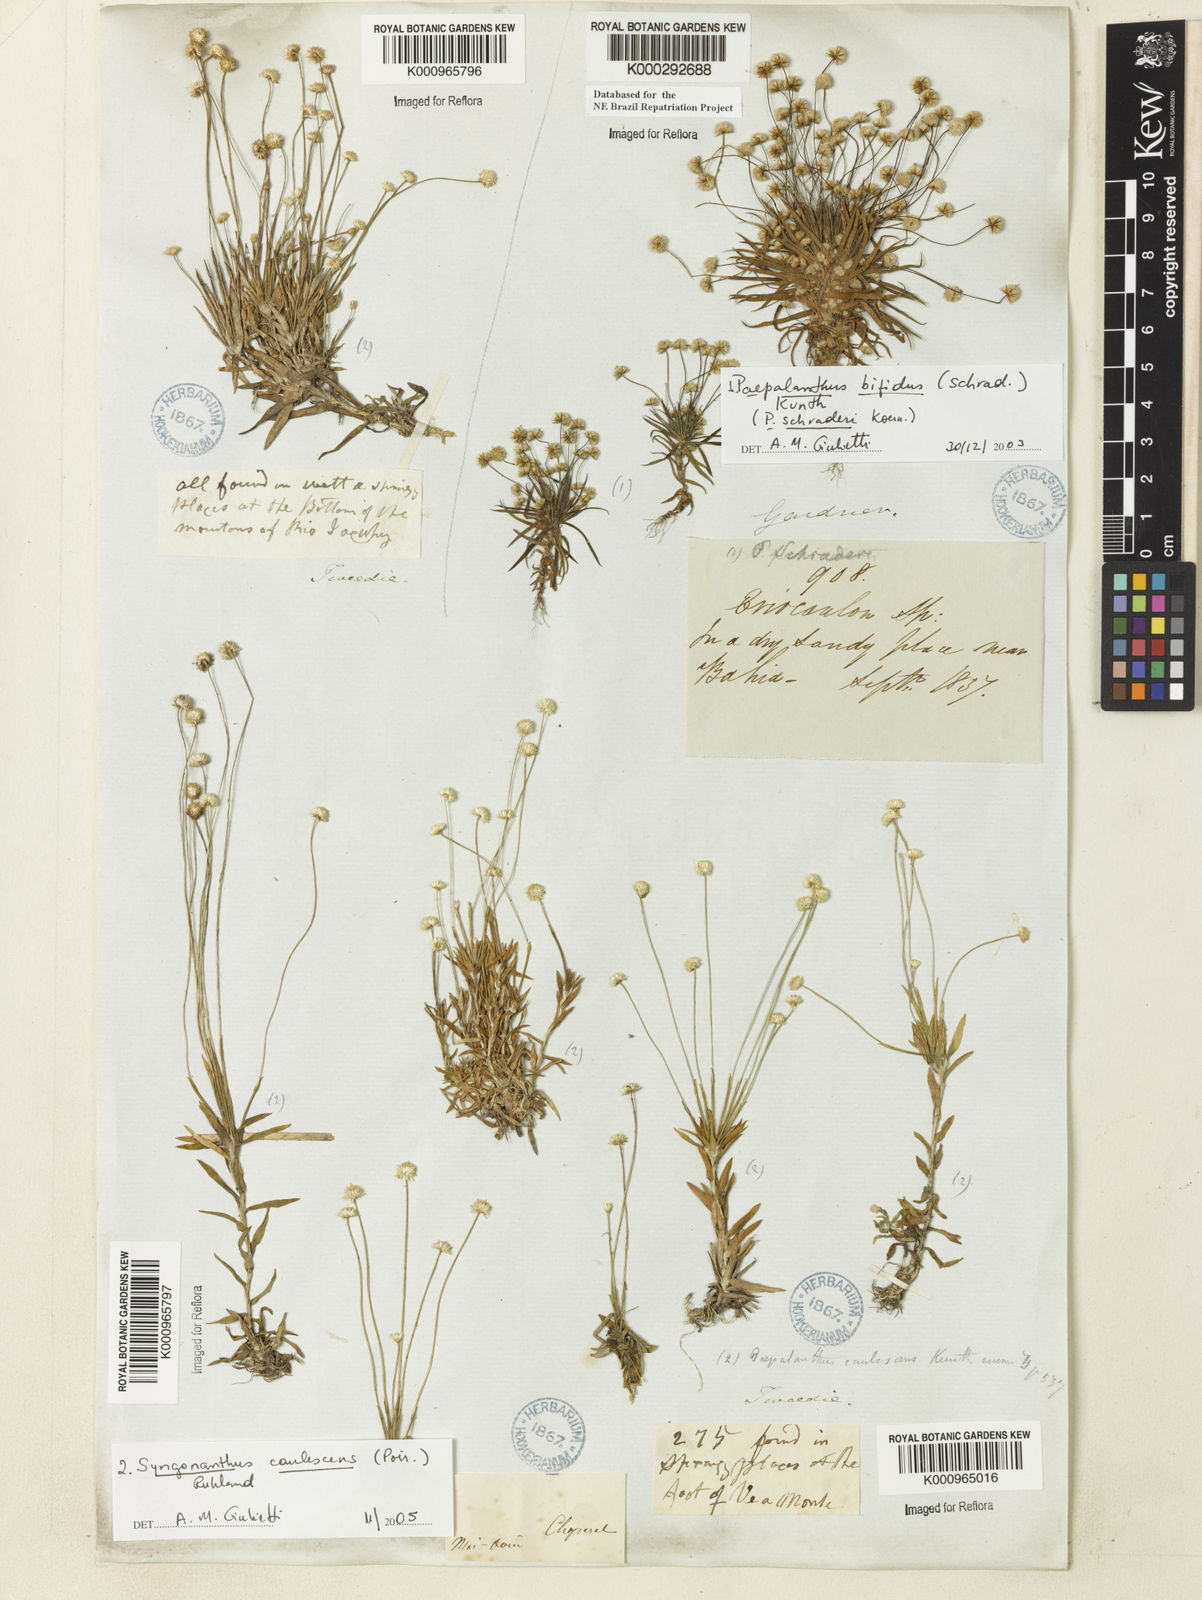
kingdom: Plantae
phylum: Tracheophyta
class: Liliopsida
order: Poales
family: Eriocaulaceae
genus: Paepalanthus
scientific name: Paepalanthus bifidus
